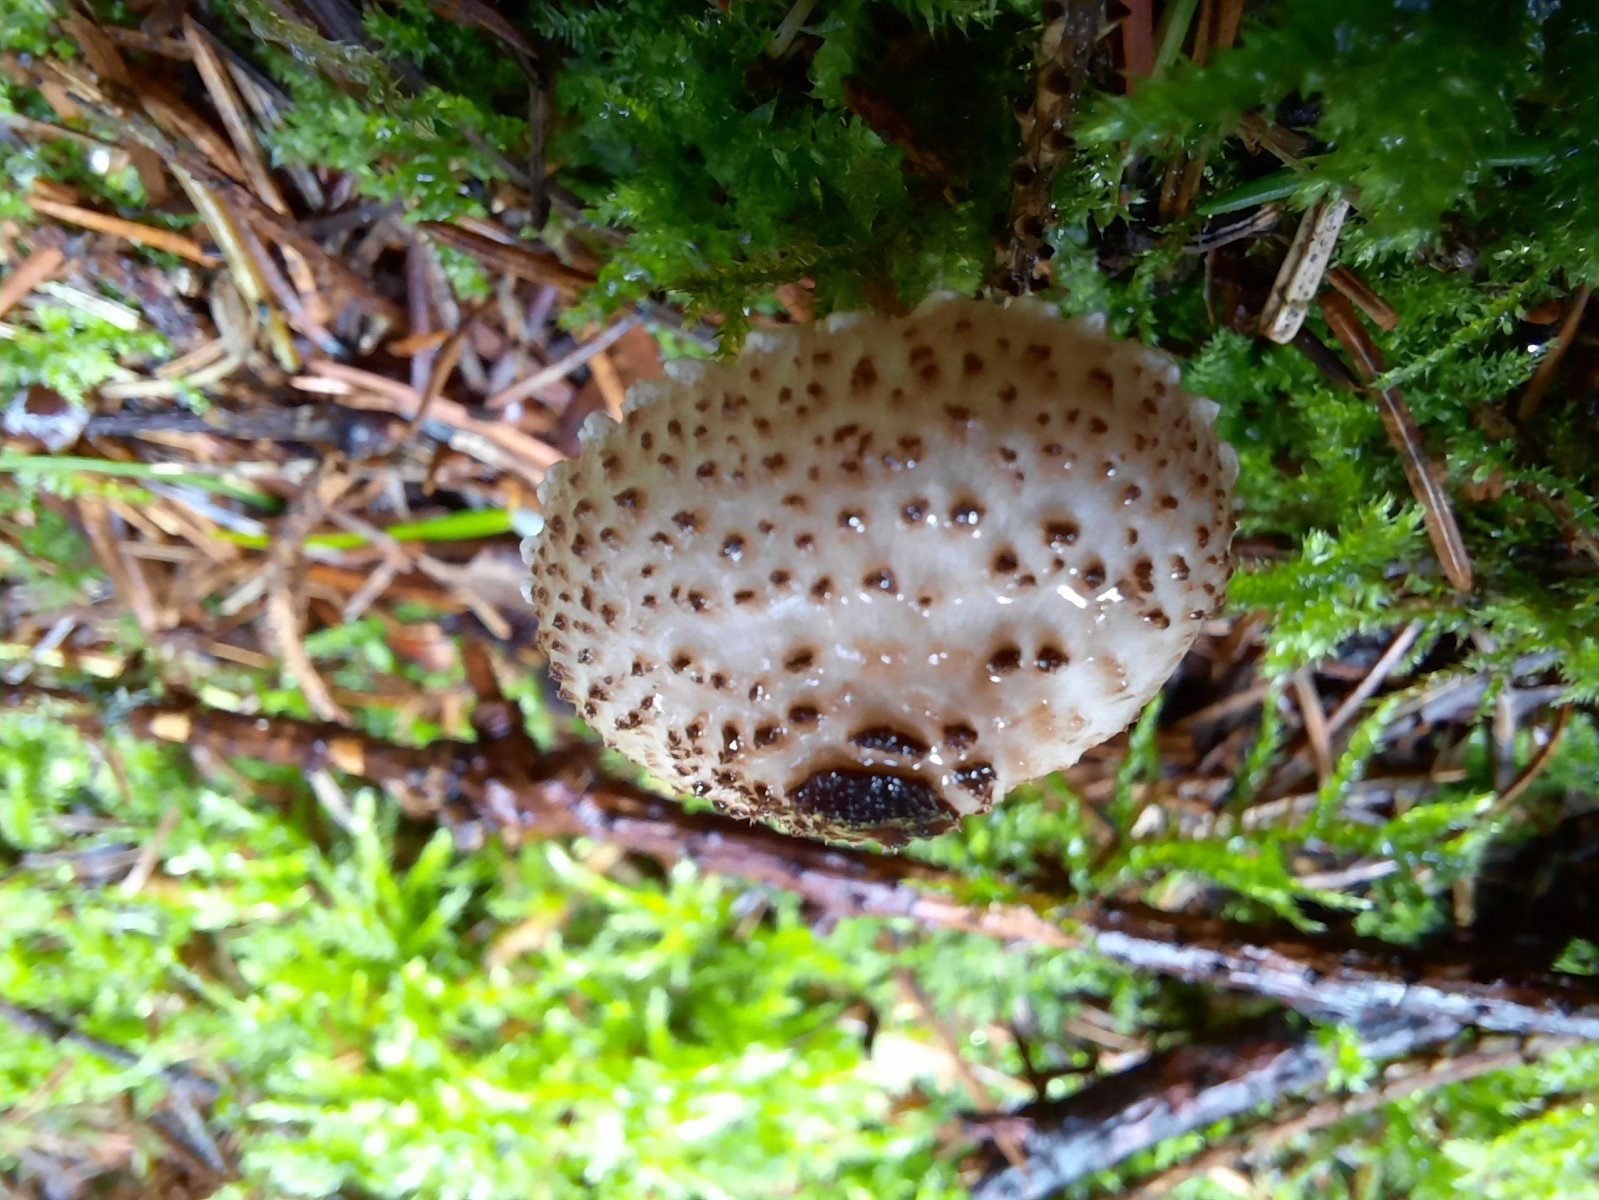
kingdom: Fungi
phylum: Basidiomycota
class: Agaricomycetes
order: Agaricales
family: Agaricaceae
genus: Lepiota
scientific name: Lepiota felina
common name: sortskællet parasolhat
